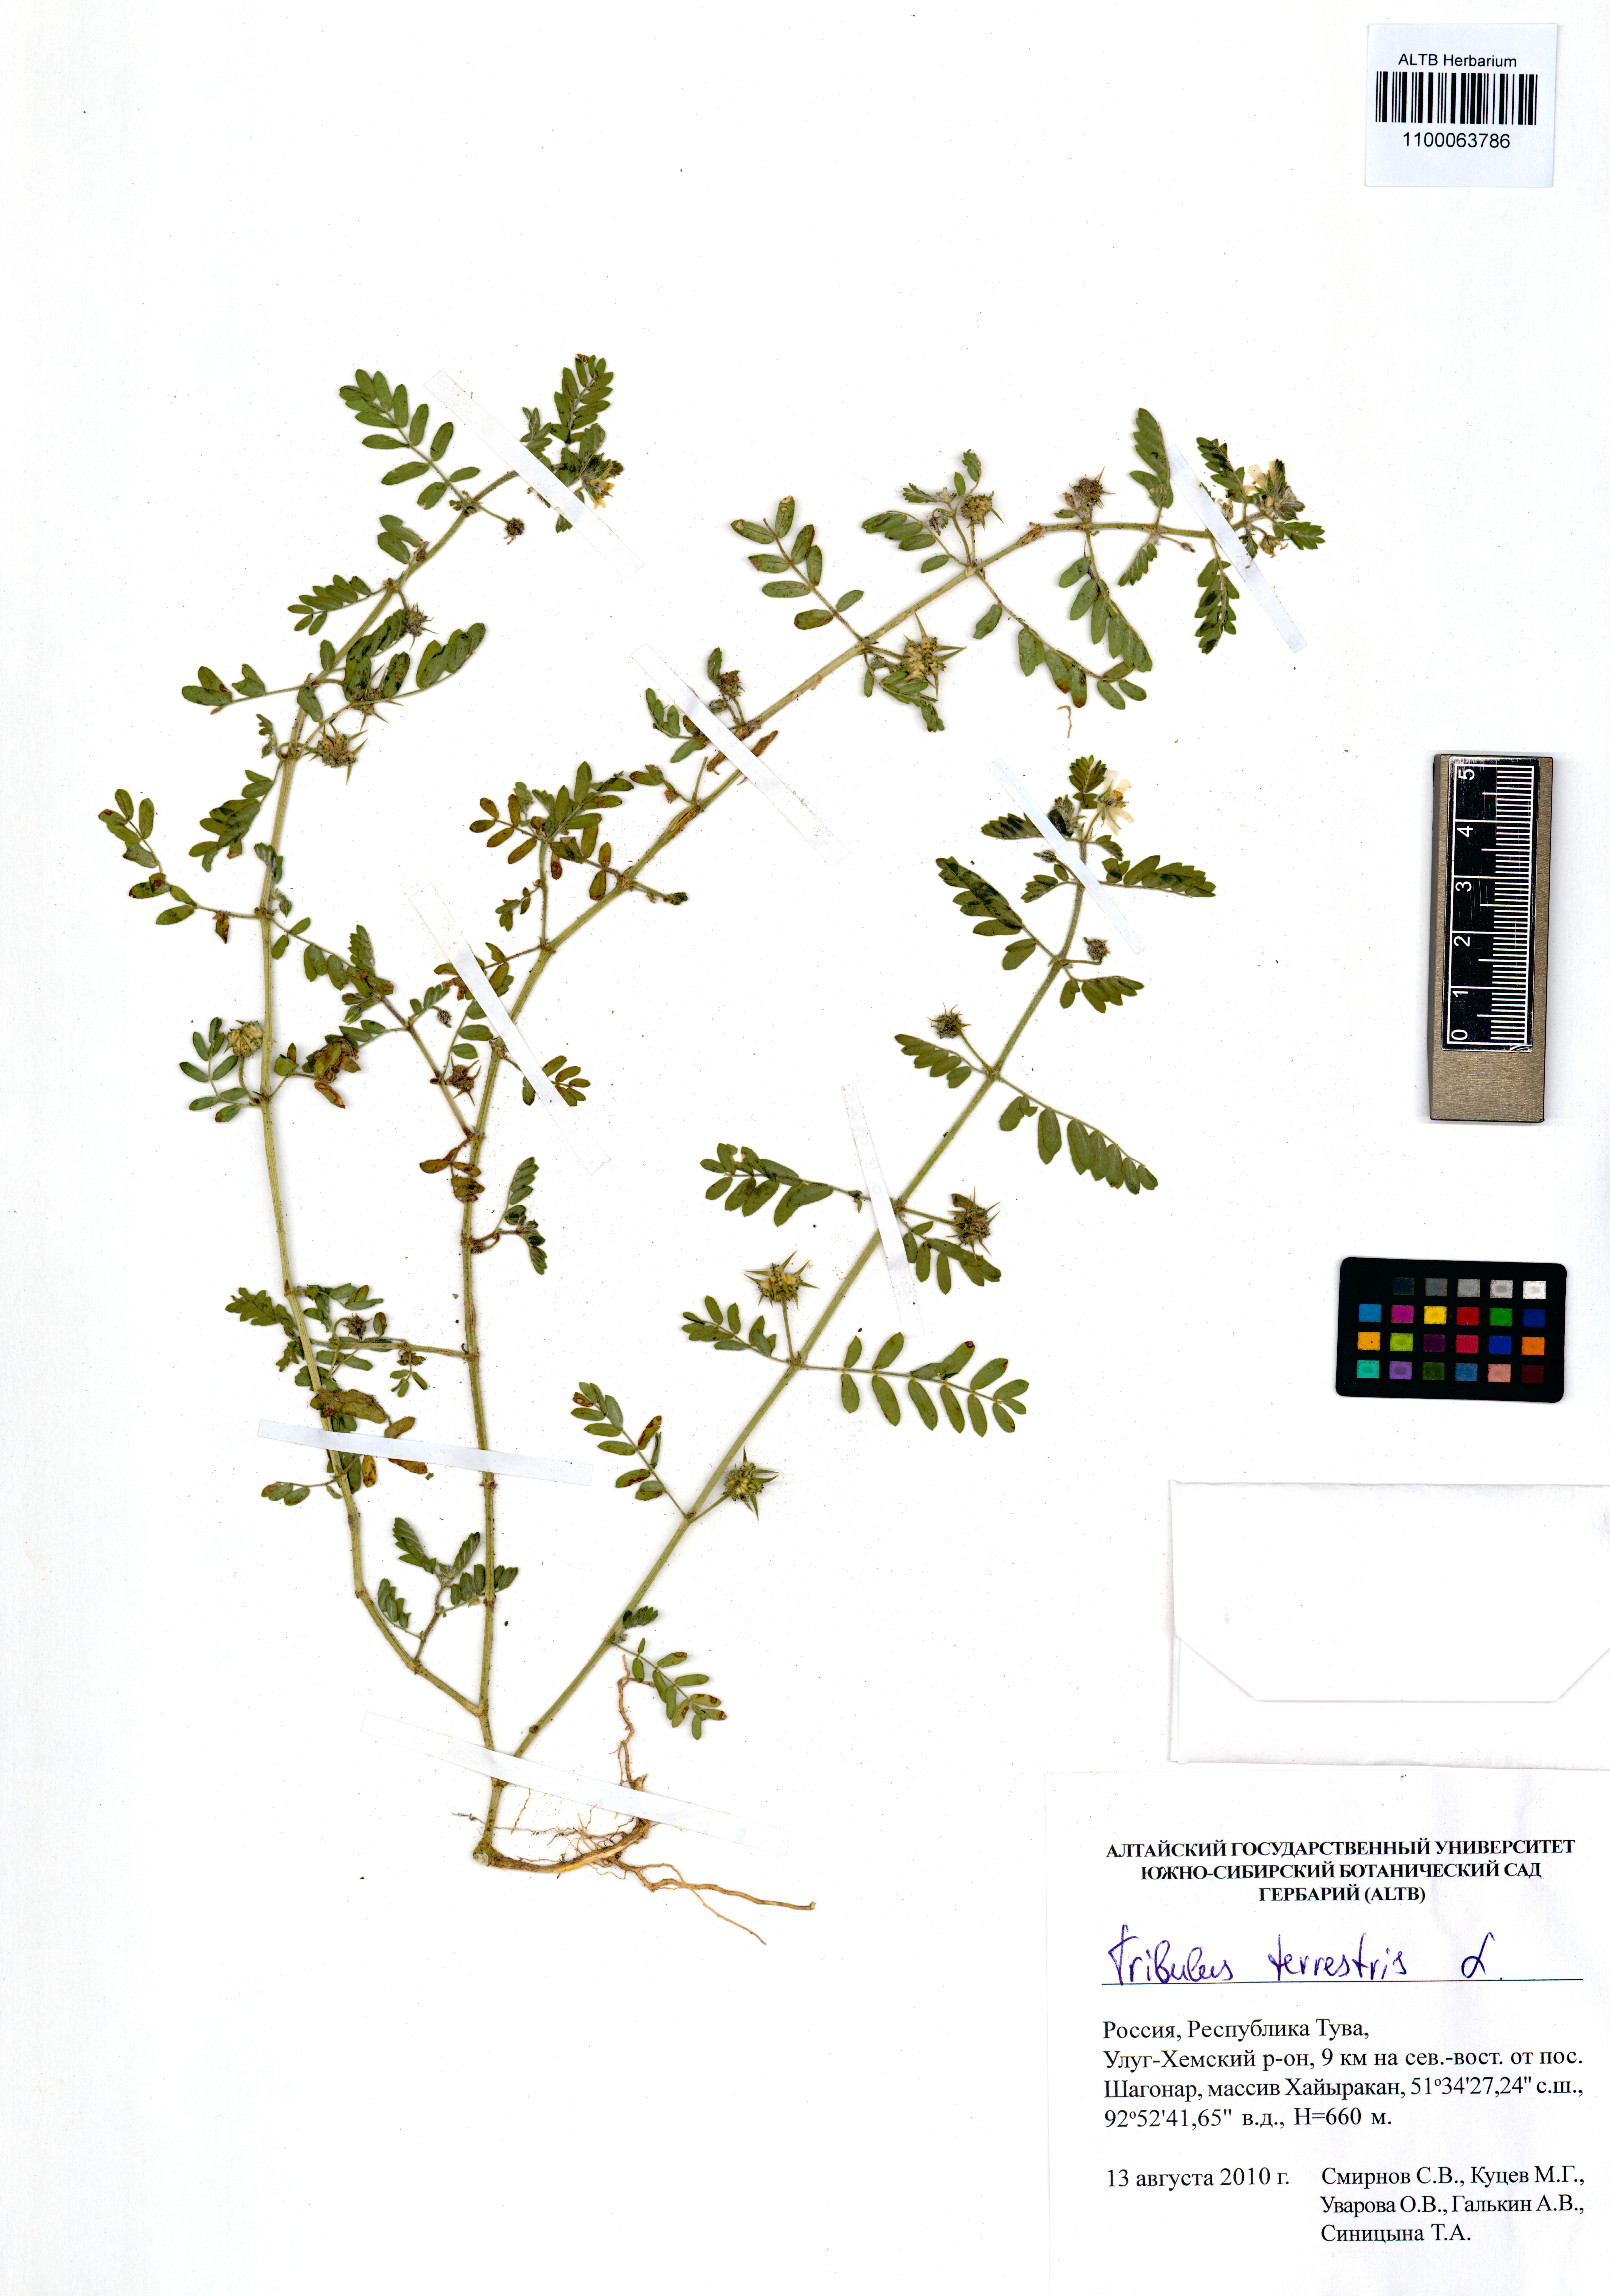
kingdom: Plantae
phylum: Tracheophyta
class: Magnoliopsida
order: Zygophyllales
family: Zygophyllaceae
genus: Tribulus
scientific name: Tribulus terrestris
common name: Puncturevine
